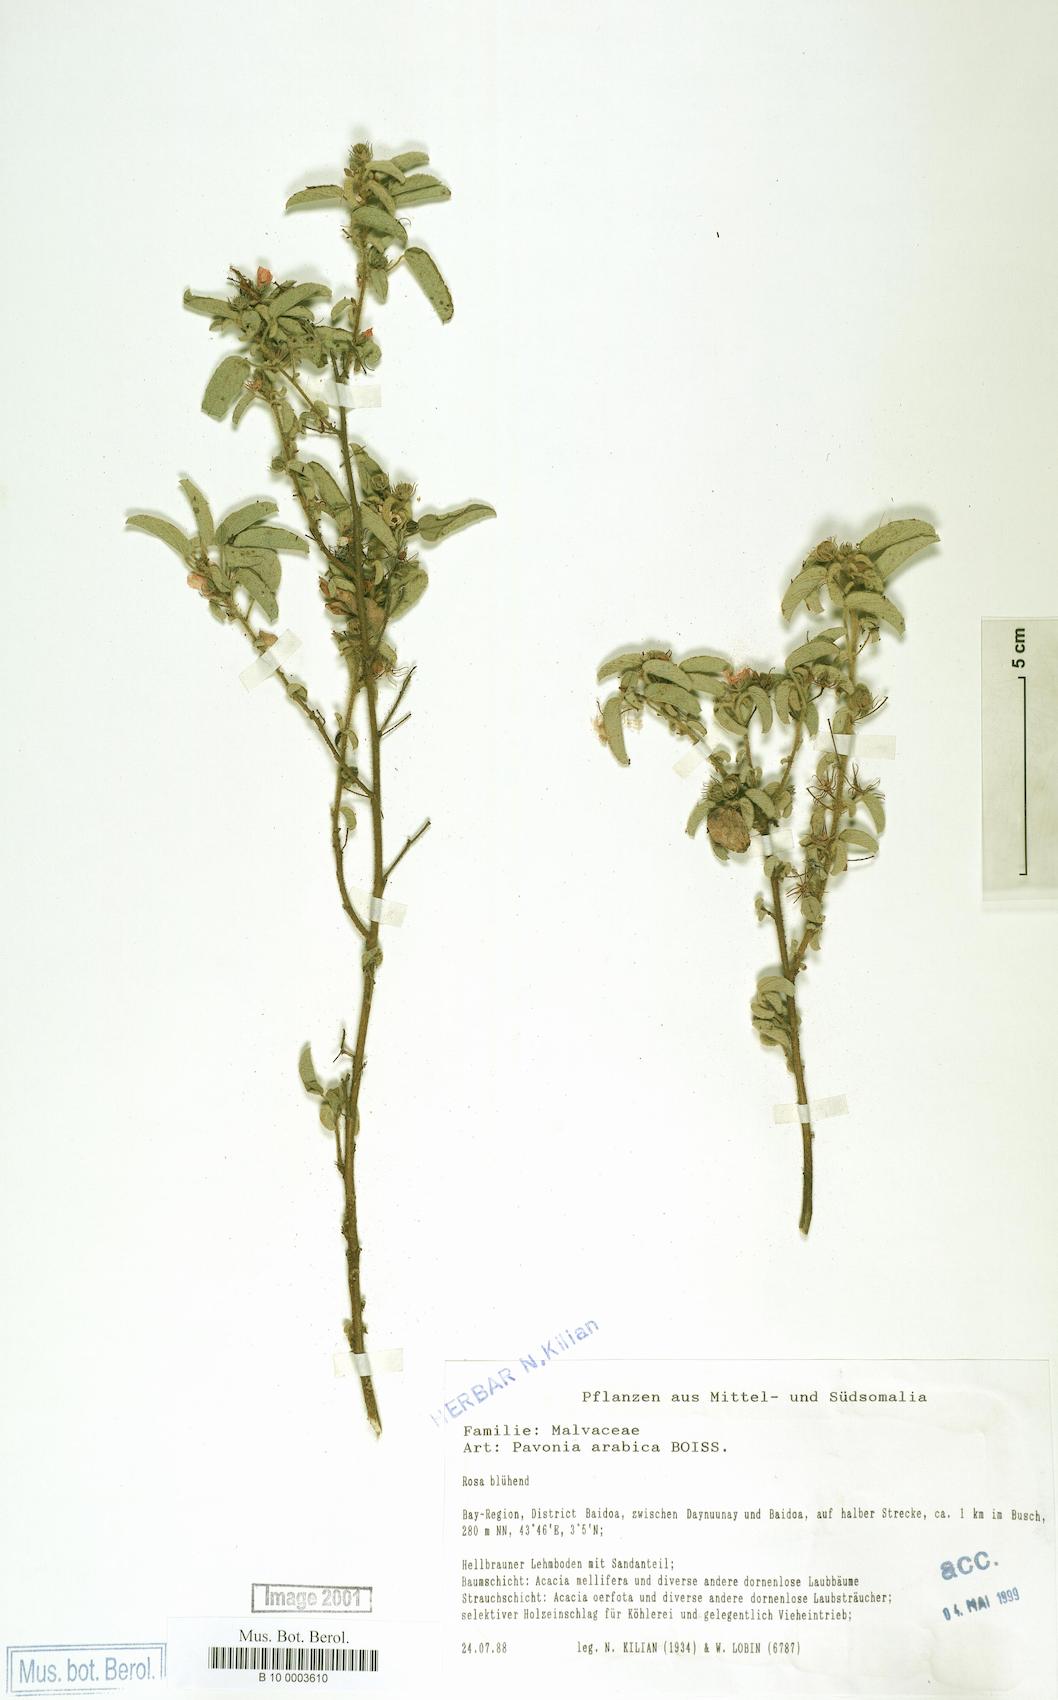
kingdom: Plantae
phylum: Tracheophyta
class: Magnoliopsida
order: Malvales
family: Malvaceae
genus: Pavonia
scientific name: Pavonia arabica
